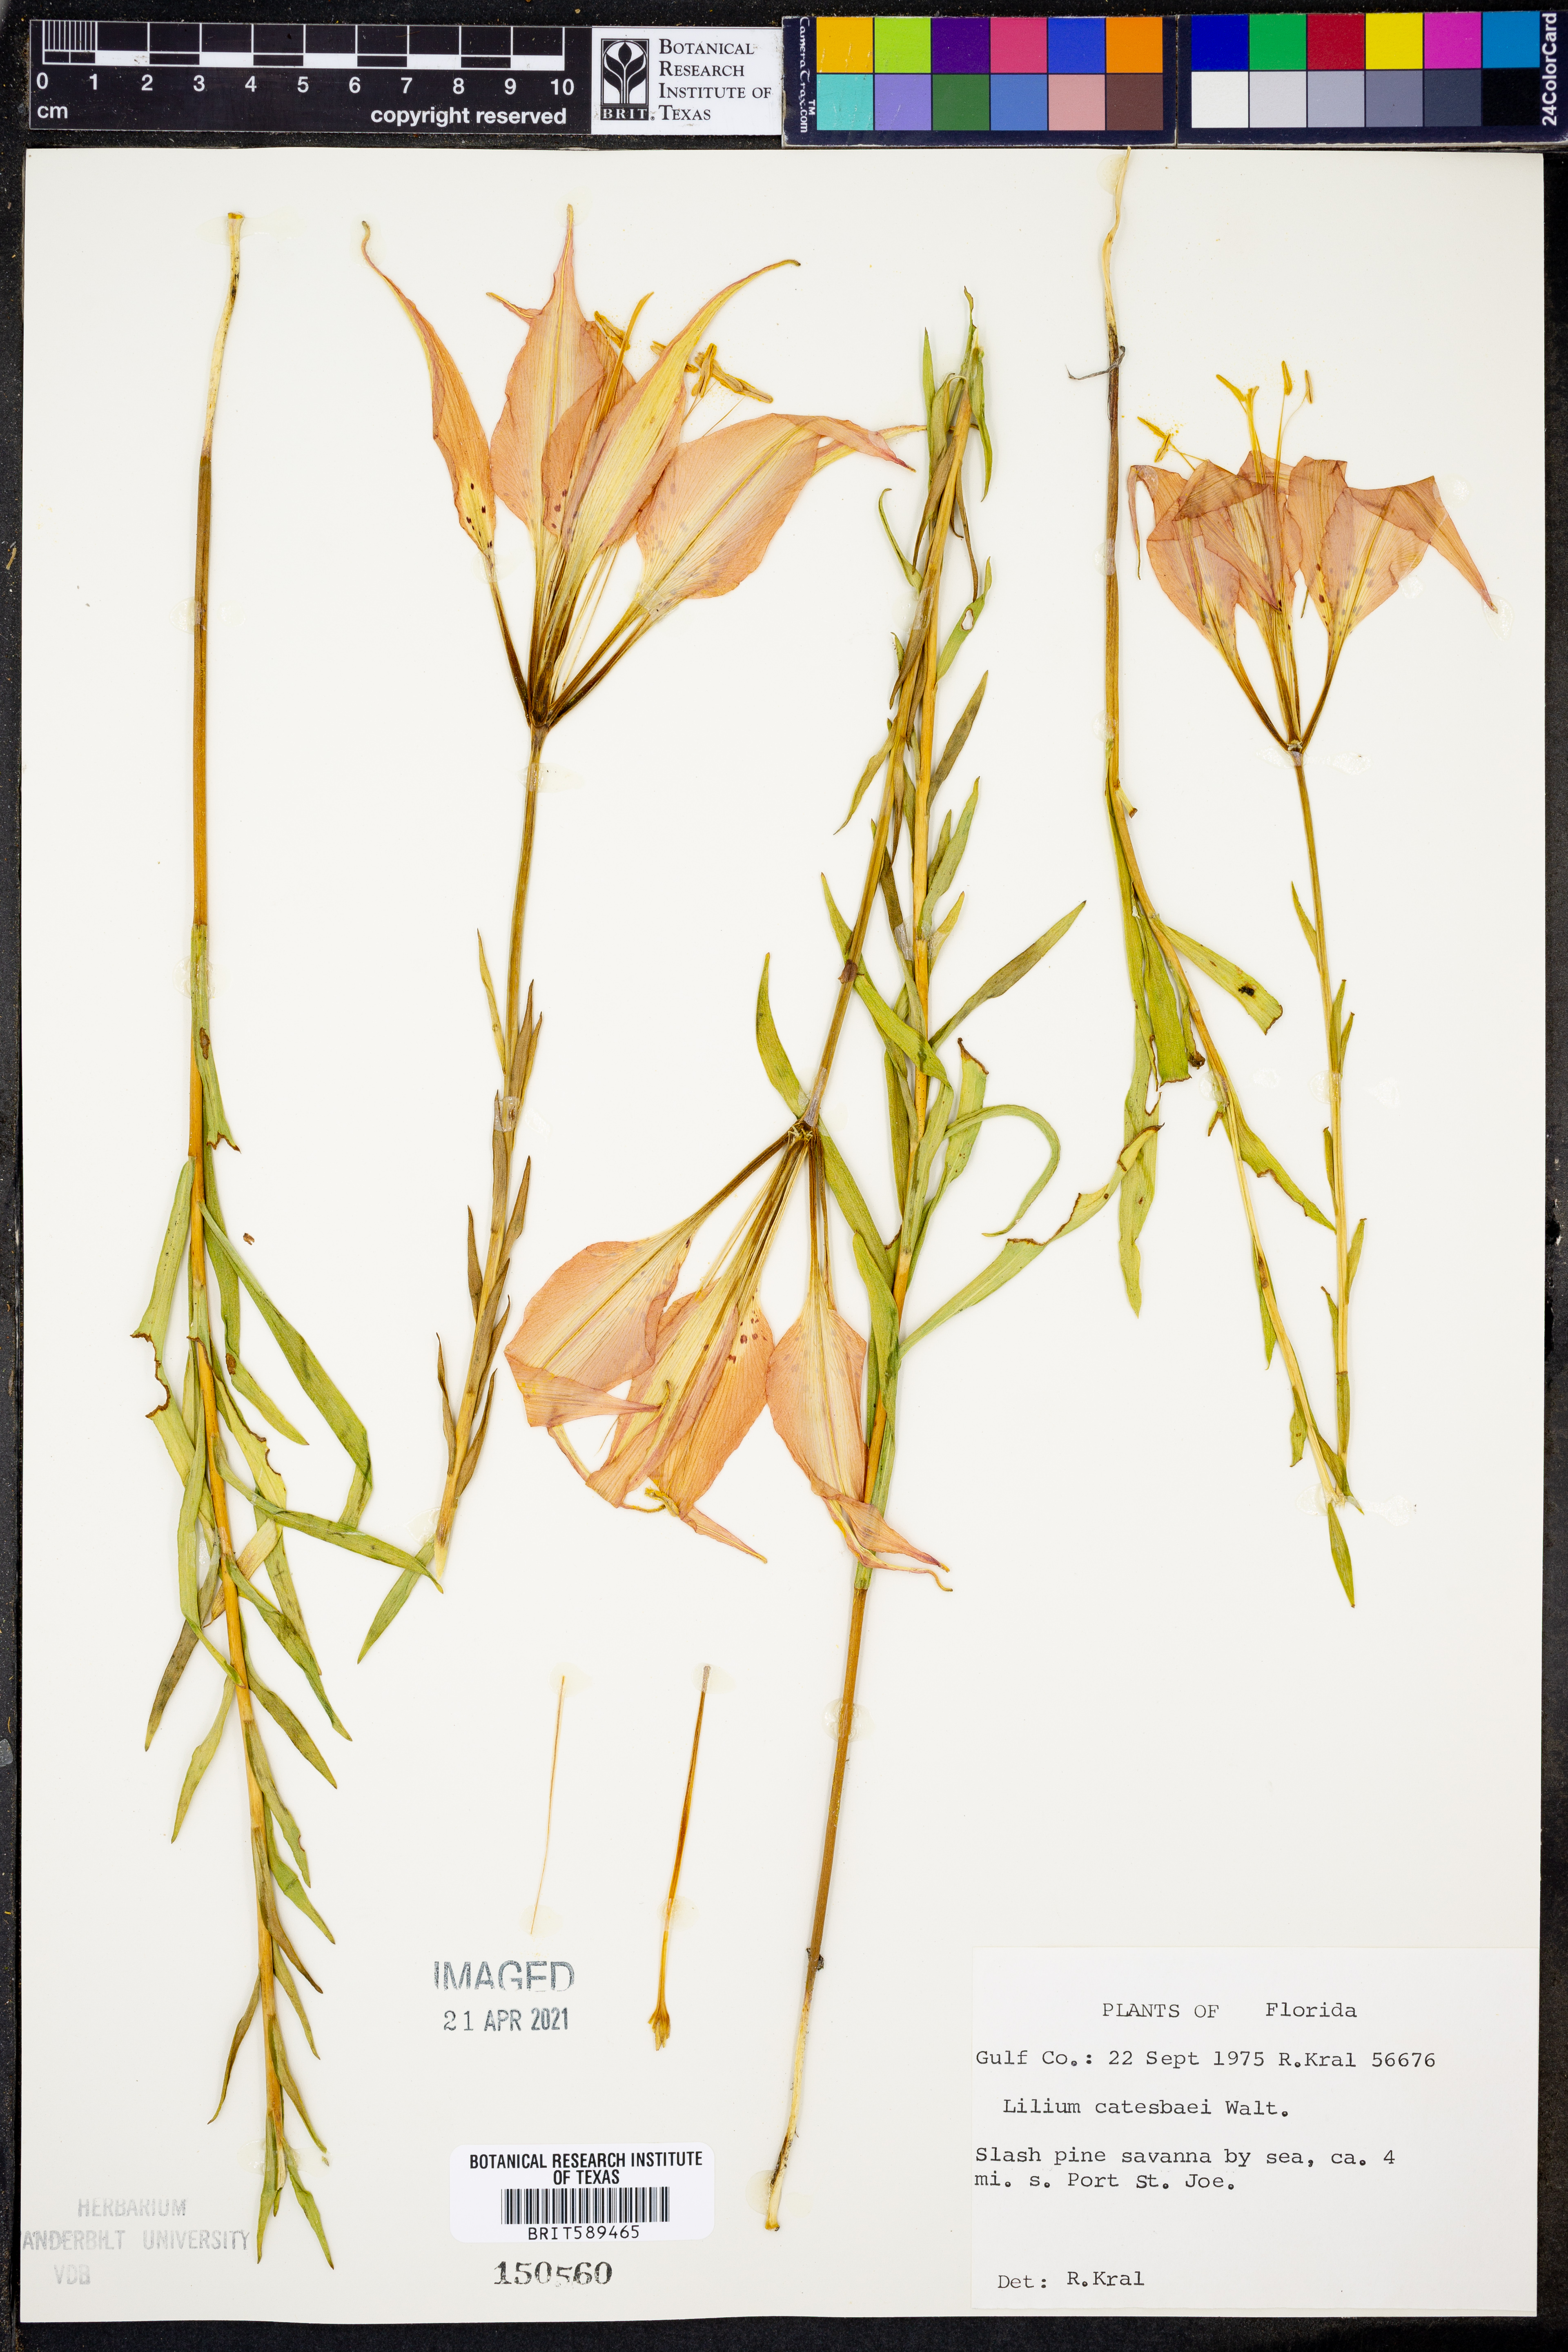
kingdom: Plantae
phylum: Tracheophyta
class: Liliopsida
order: Liliales
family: Liliaceae
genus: Lilium
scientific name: Lilium catesbaei
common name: Catesby's lily
